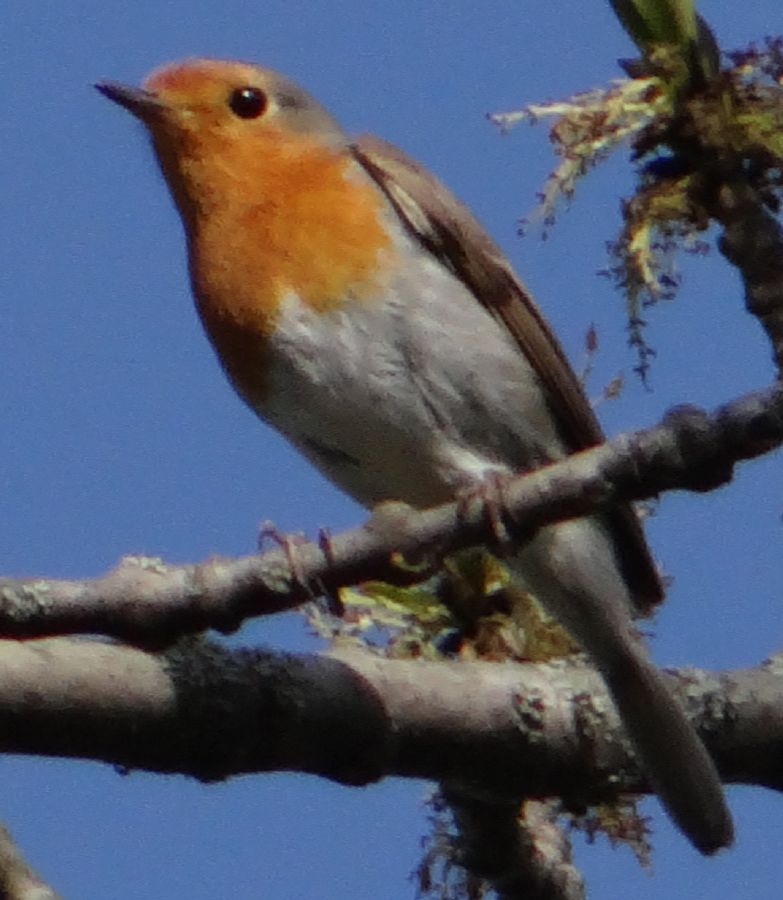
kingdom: Animalia
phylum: Chordata
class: Aves
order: Passeriformes
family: Muscicapidae
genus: Erithacus
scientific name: Erithacus rubecula
